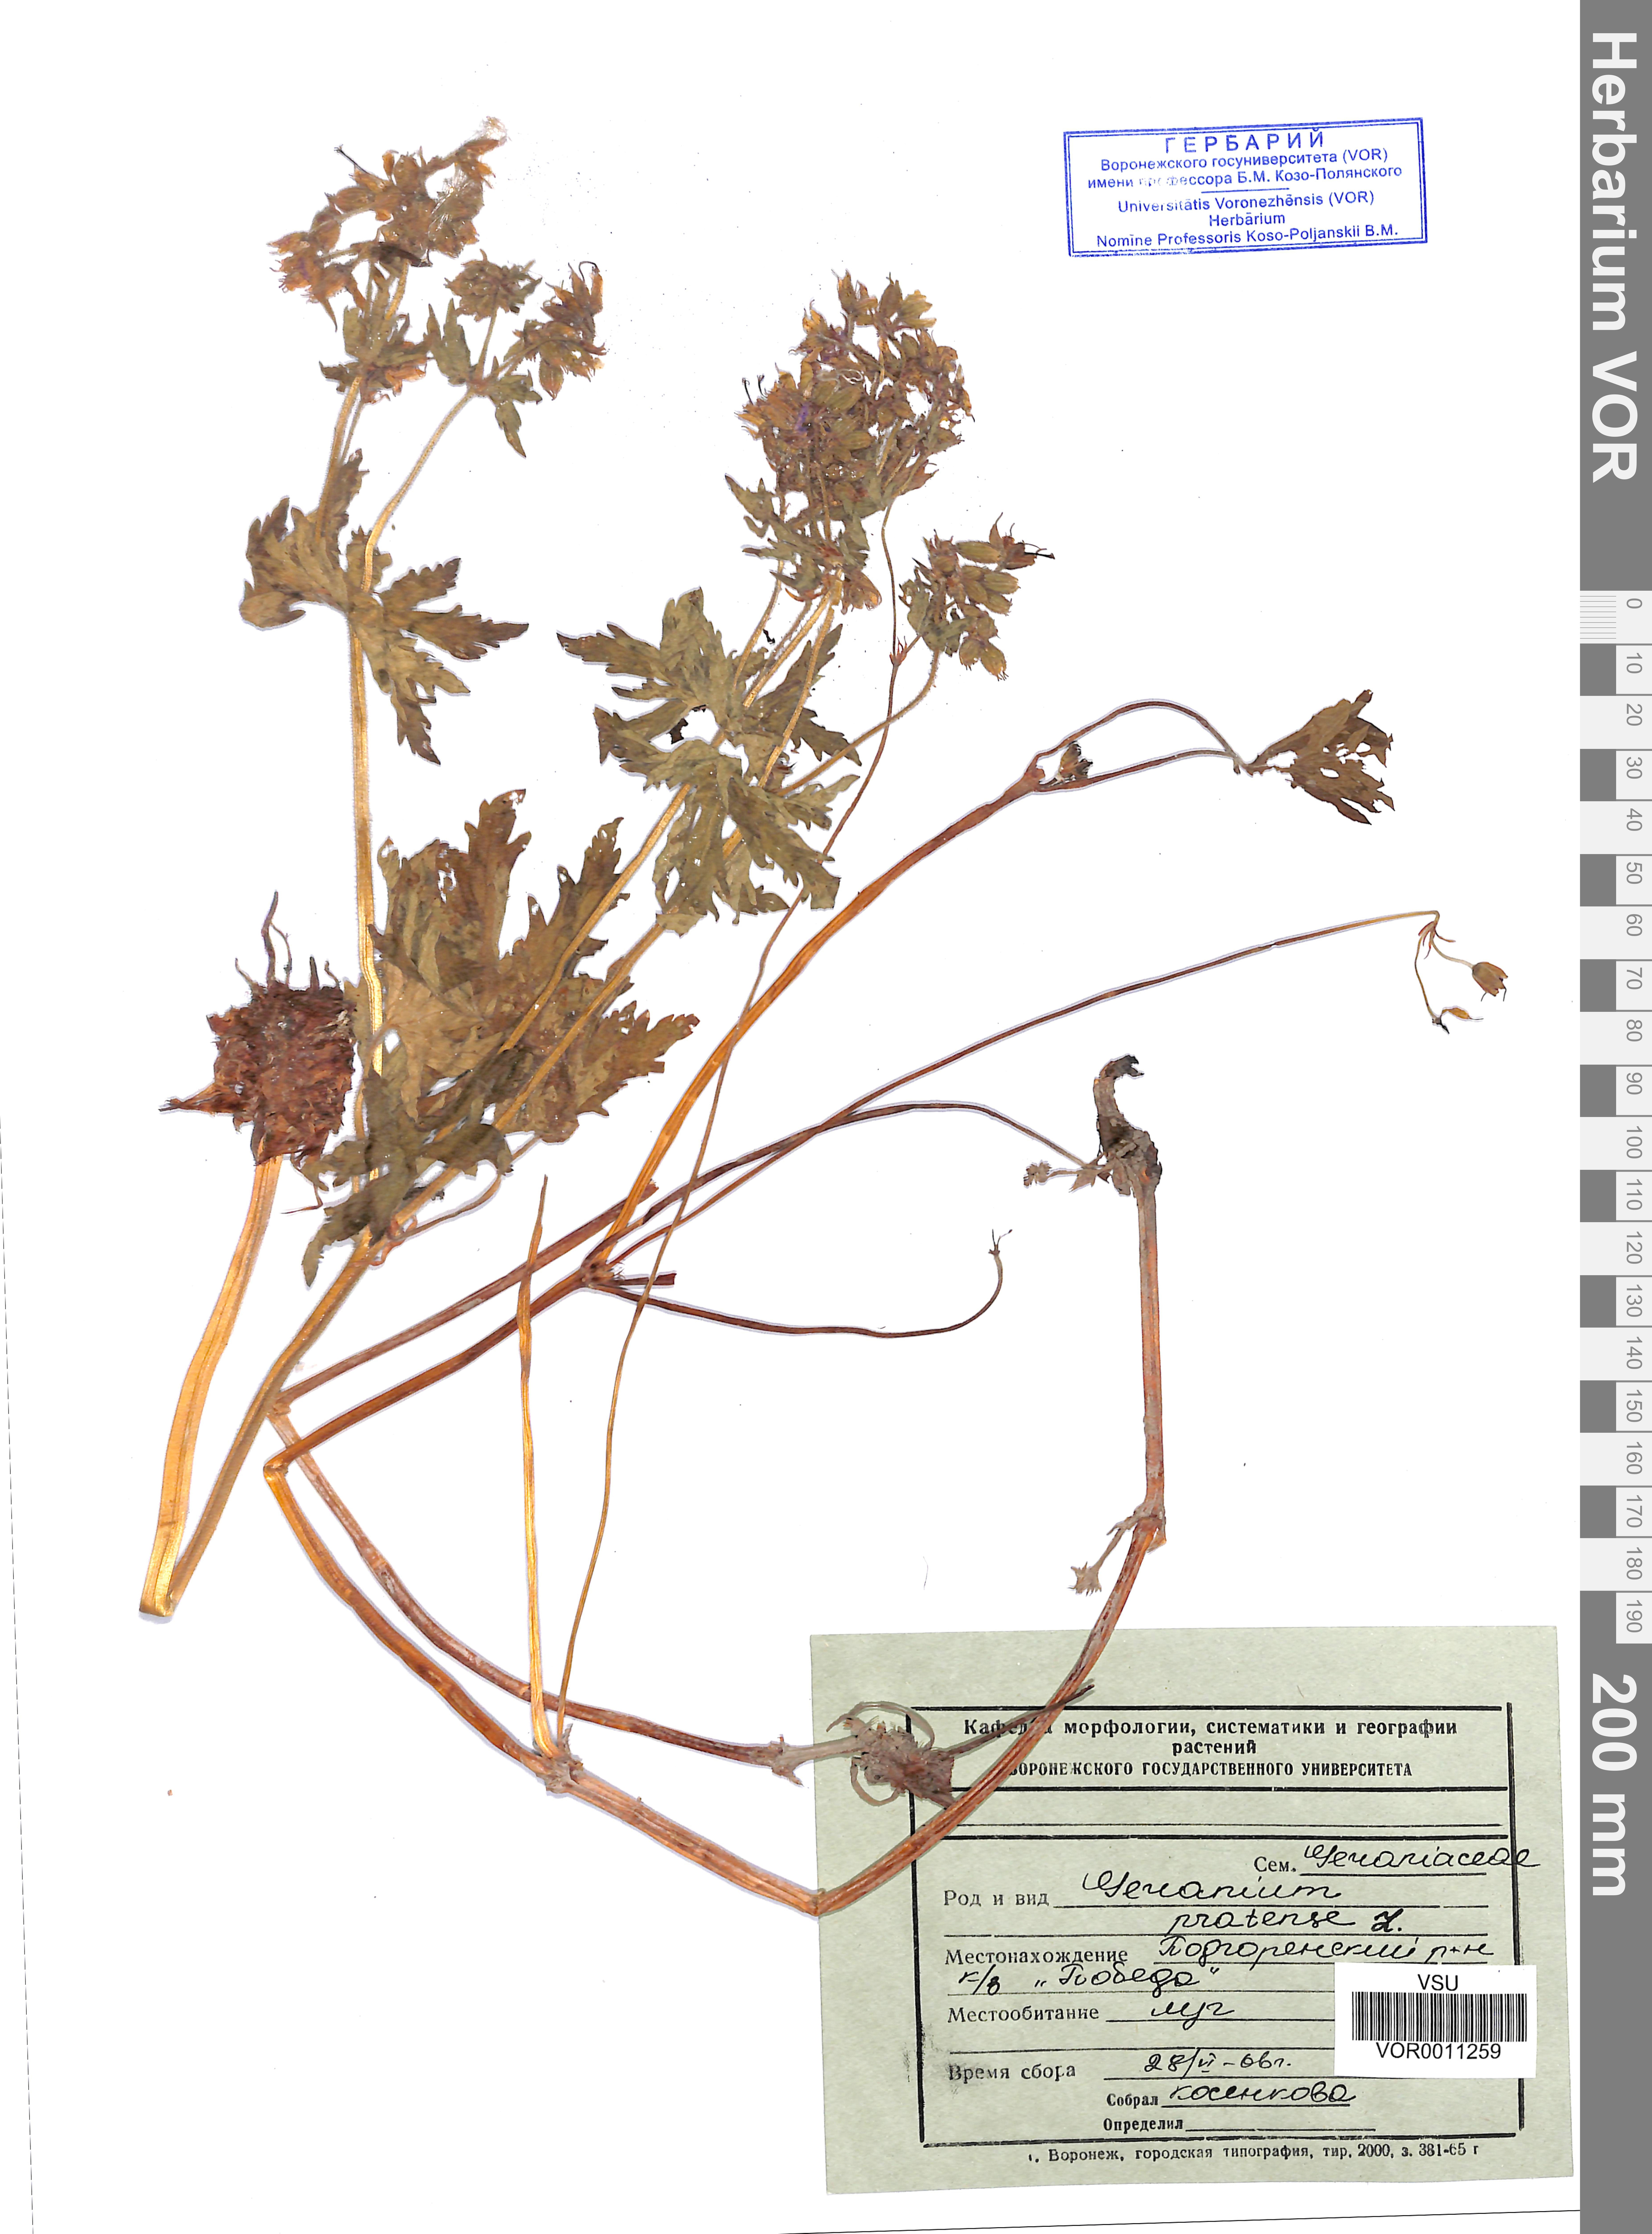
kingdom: Plantae
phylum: Tracheophyta
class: Magnoliopsida
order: Geraniales
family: Geraniaceae
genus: Geranium
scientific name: Geranium pratense
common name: Meadow crane's-bill
